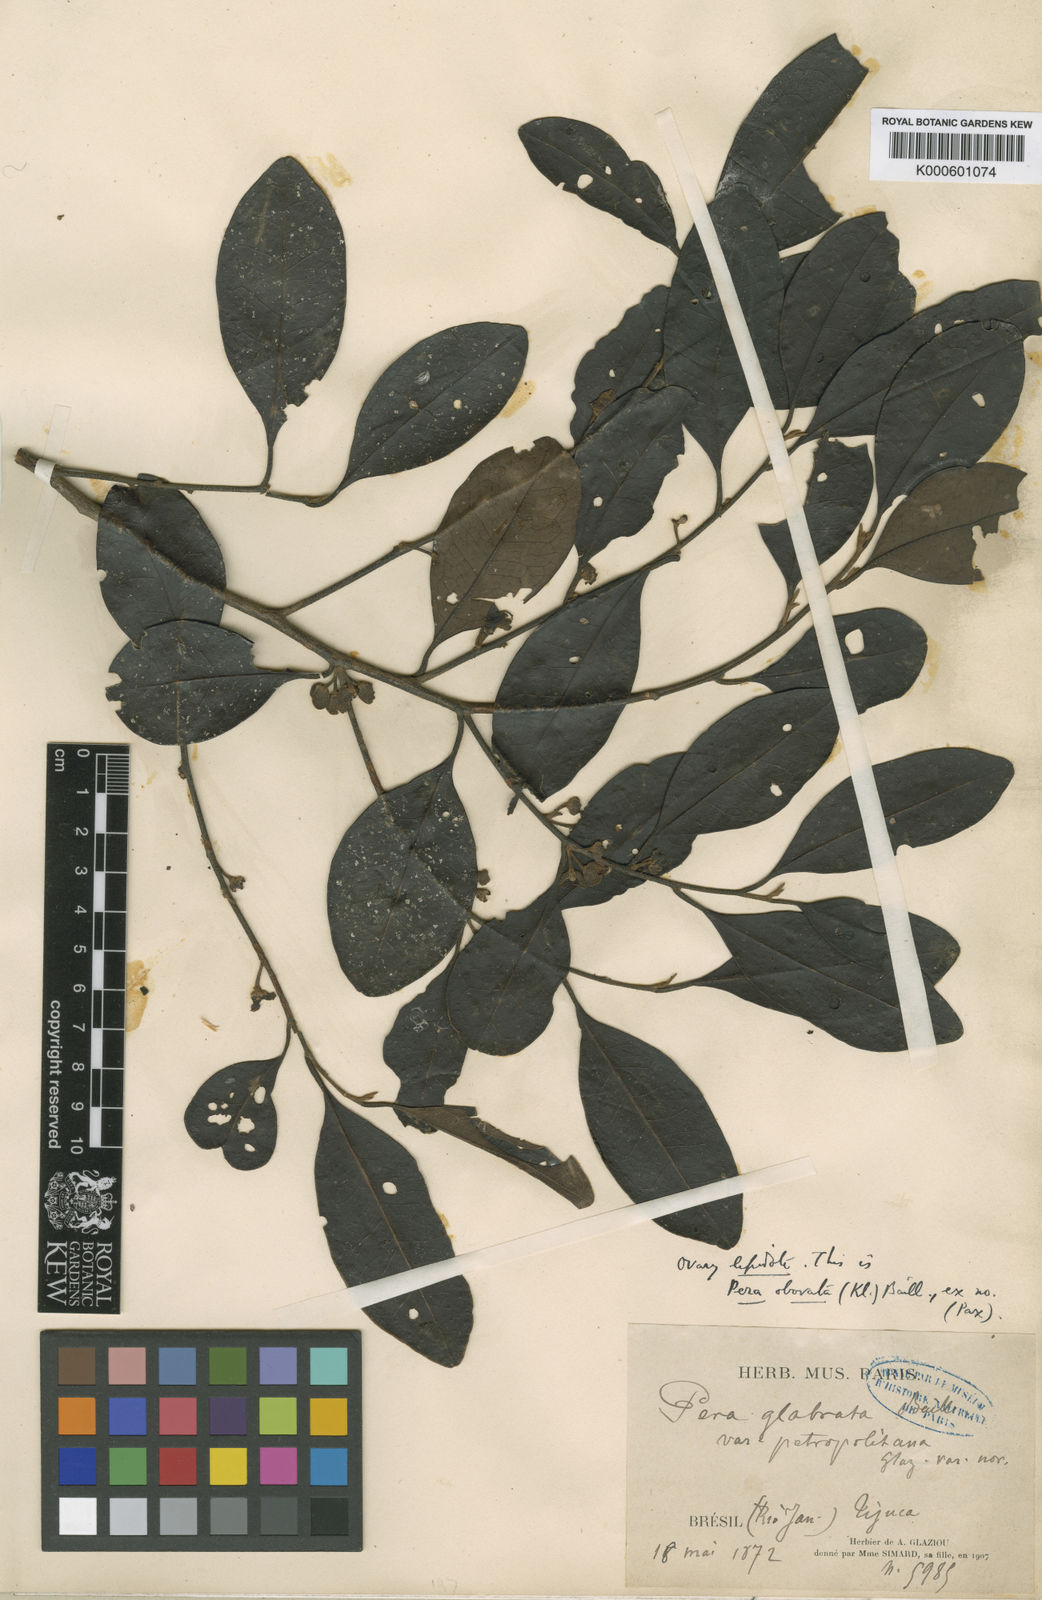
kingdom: Plantae
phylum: Tracheophyta
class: Magnoliopsida
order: Malpighiales
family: Peraceae
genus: Pera
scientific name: Pera glabrata
